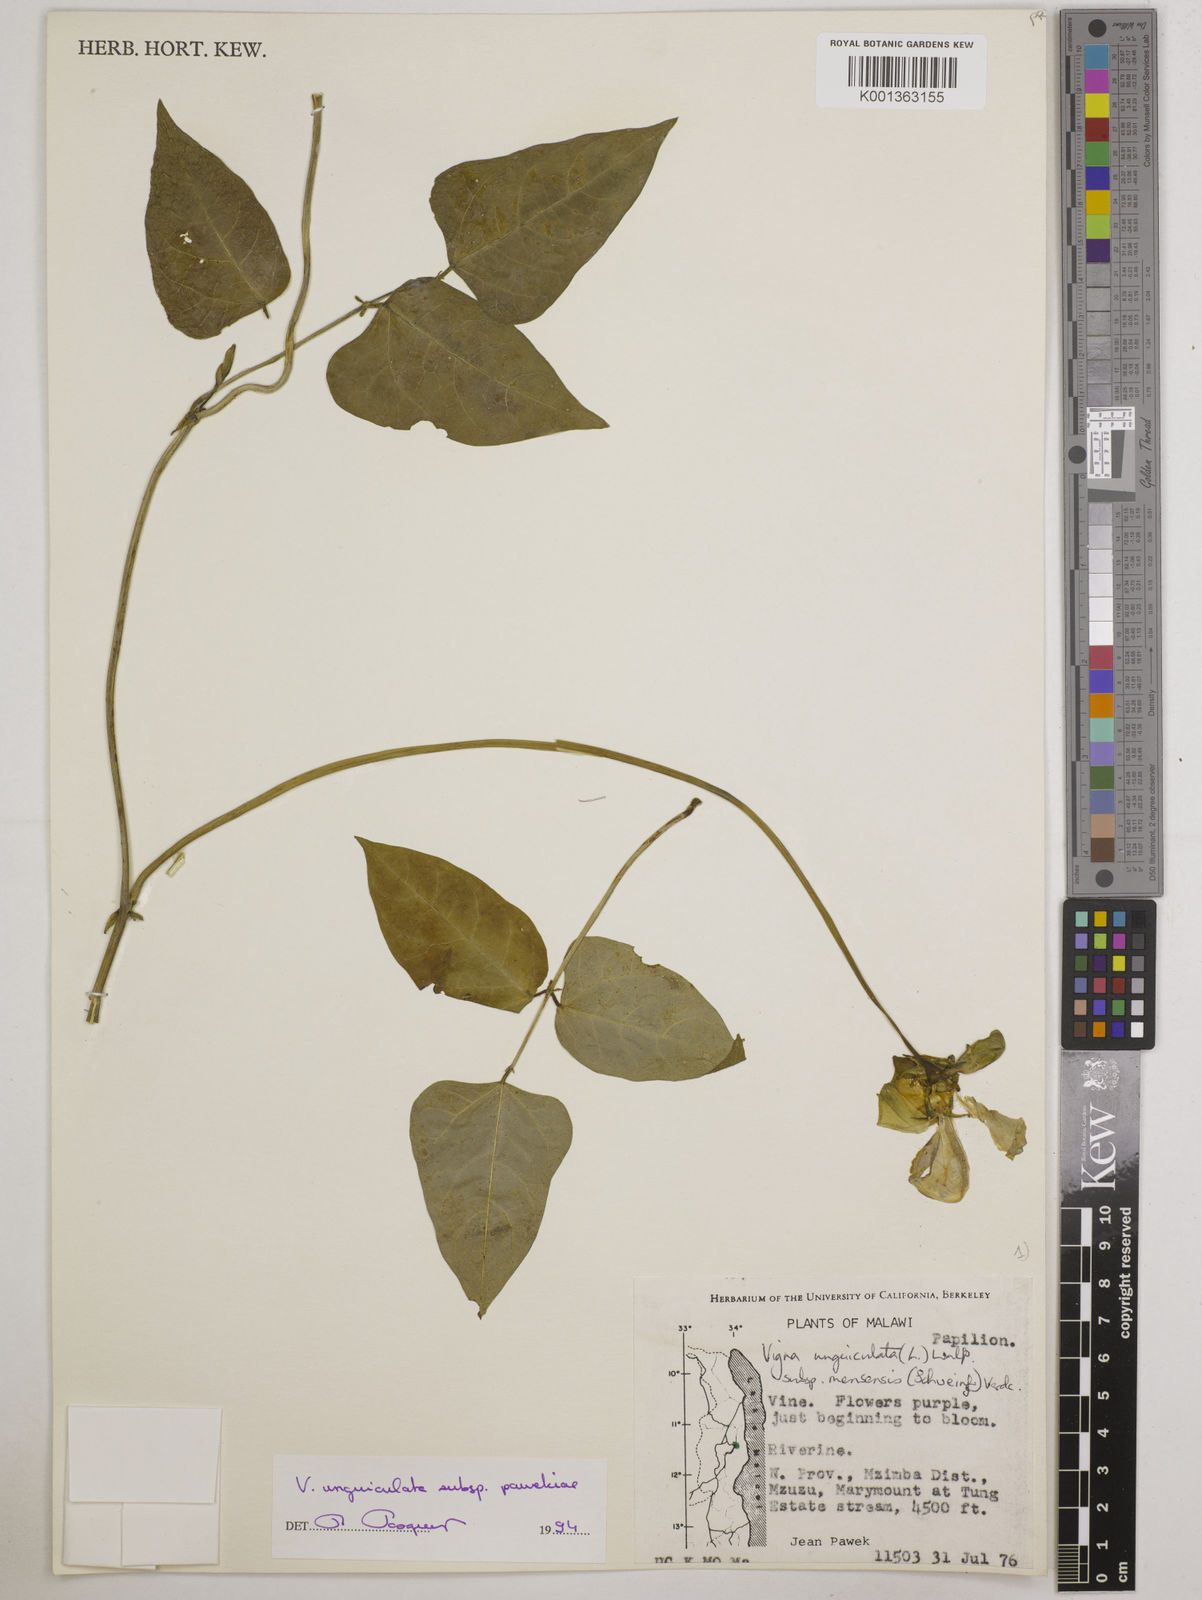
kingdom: Plantae
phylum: Tracheophyta
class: Magnoliopsida
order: Fabales
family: Fabaceae
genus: Vigna
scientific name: Vigna unguiculata
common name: Cowpea
